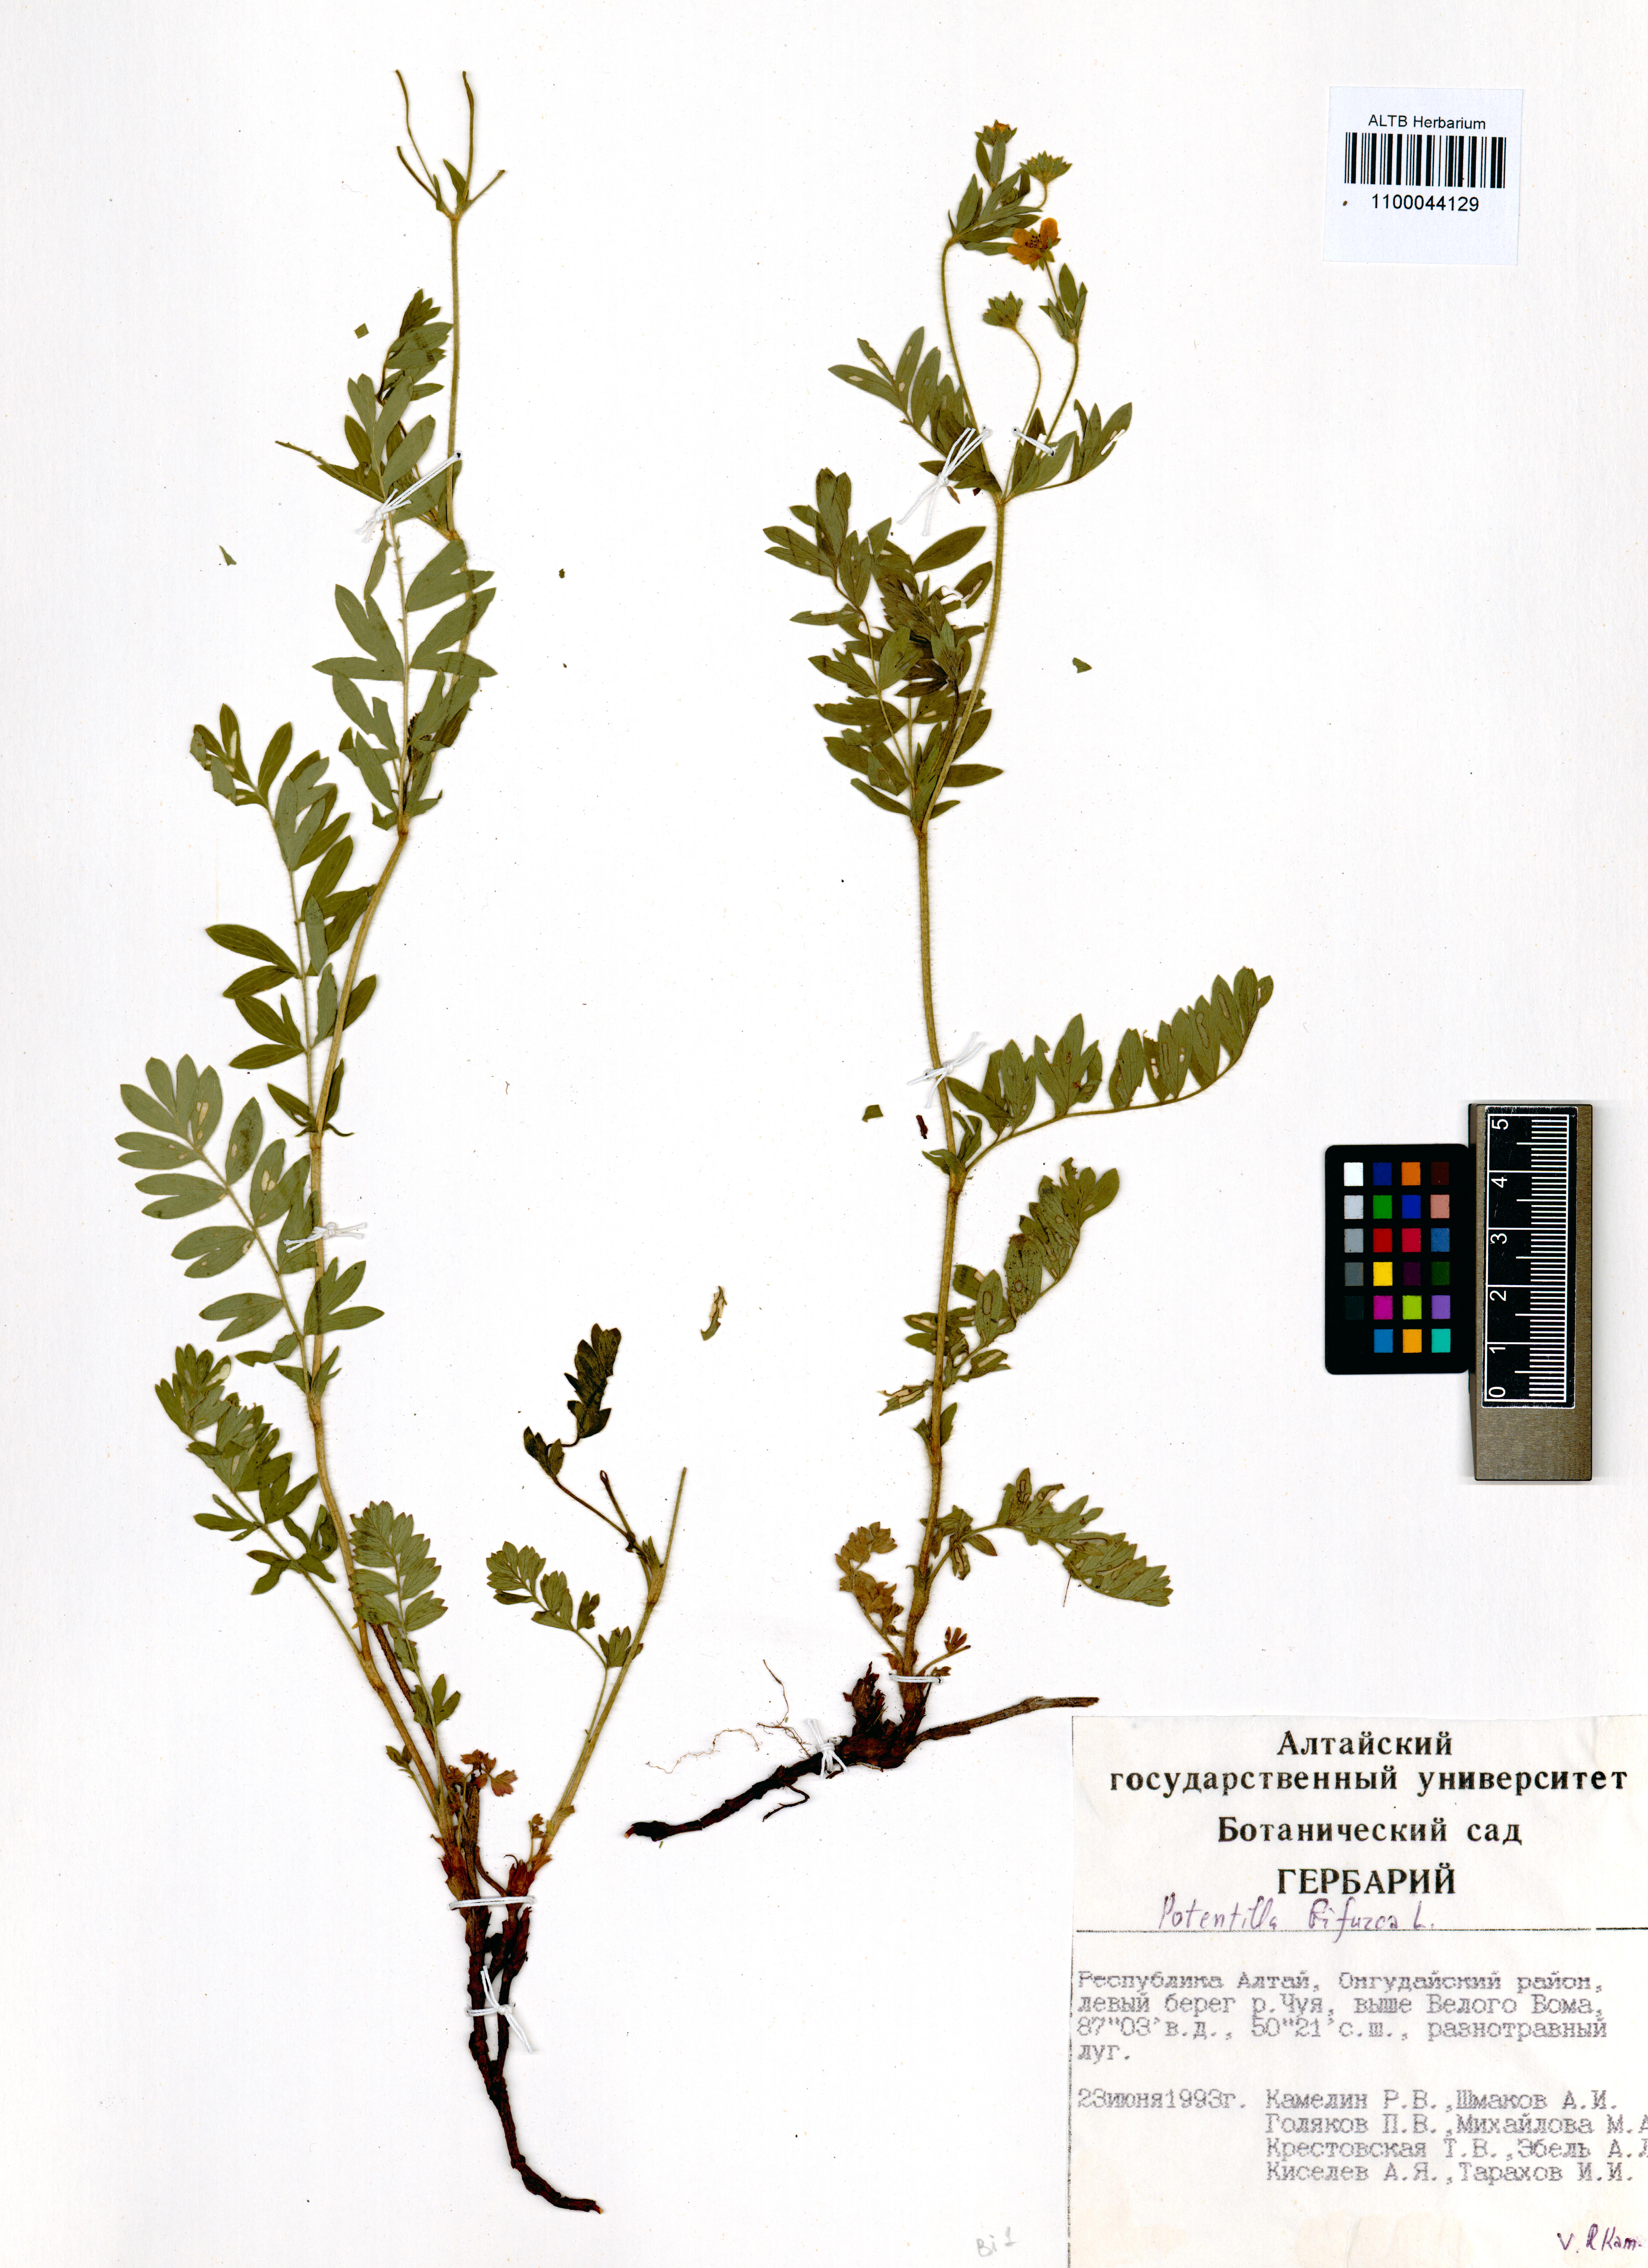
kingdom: Plantae
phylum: Tracheophyta
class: Magnoliopsida
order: Rosales
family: Rosaceae
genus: Sibbaldianthe
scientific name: Sibbaldianthe bifurca
